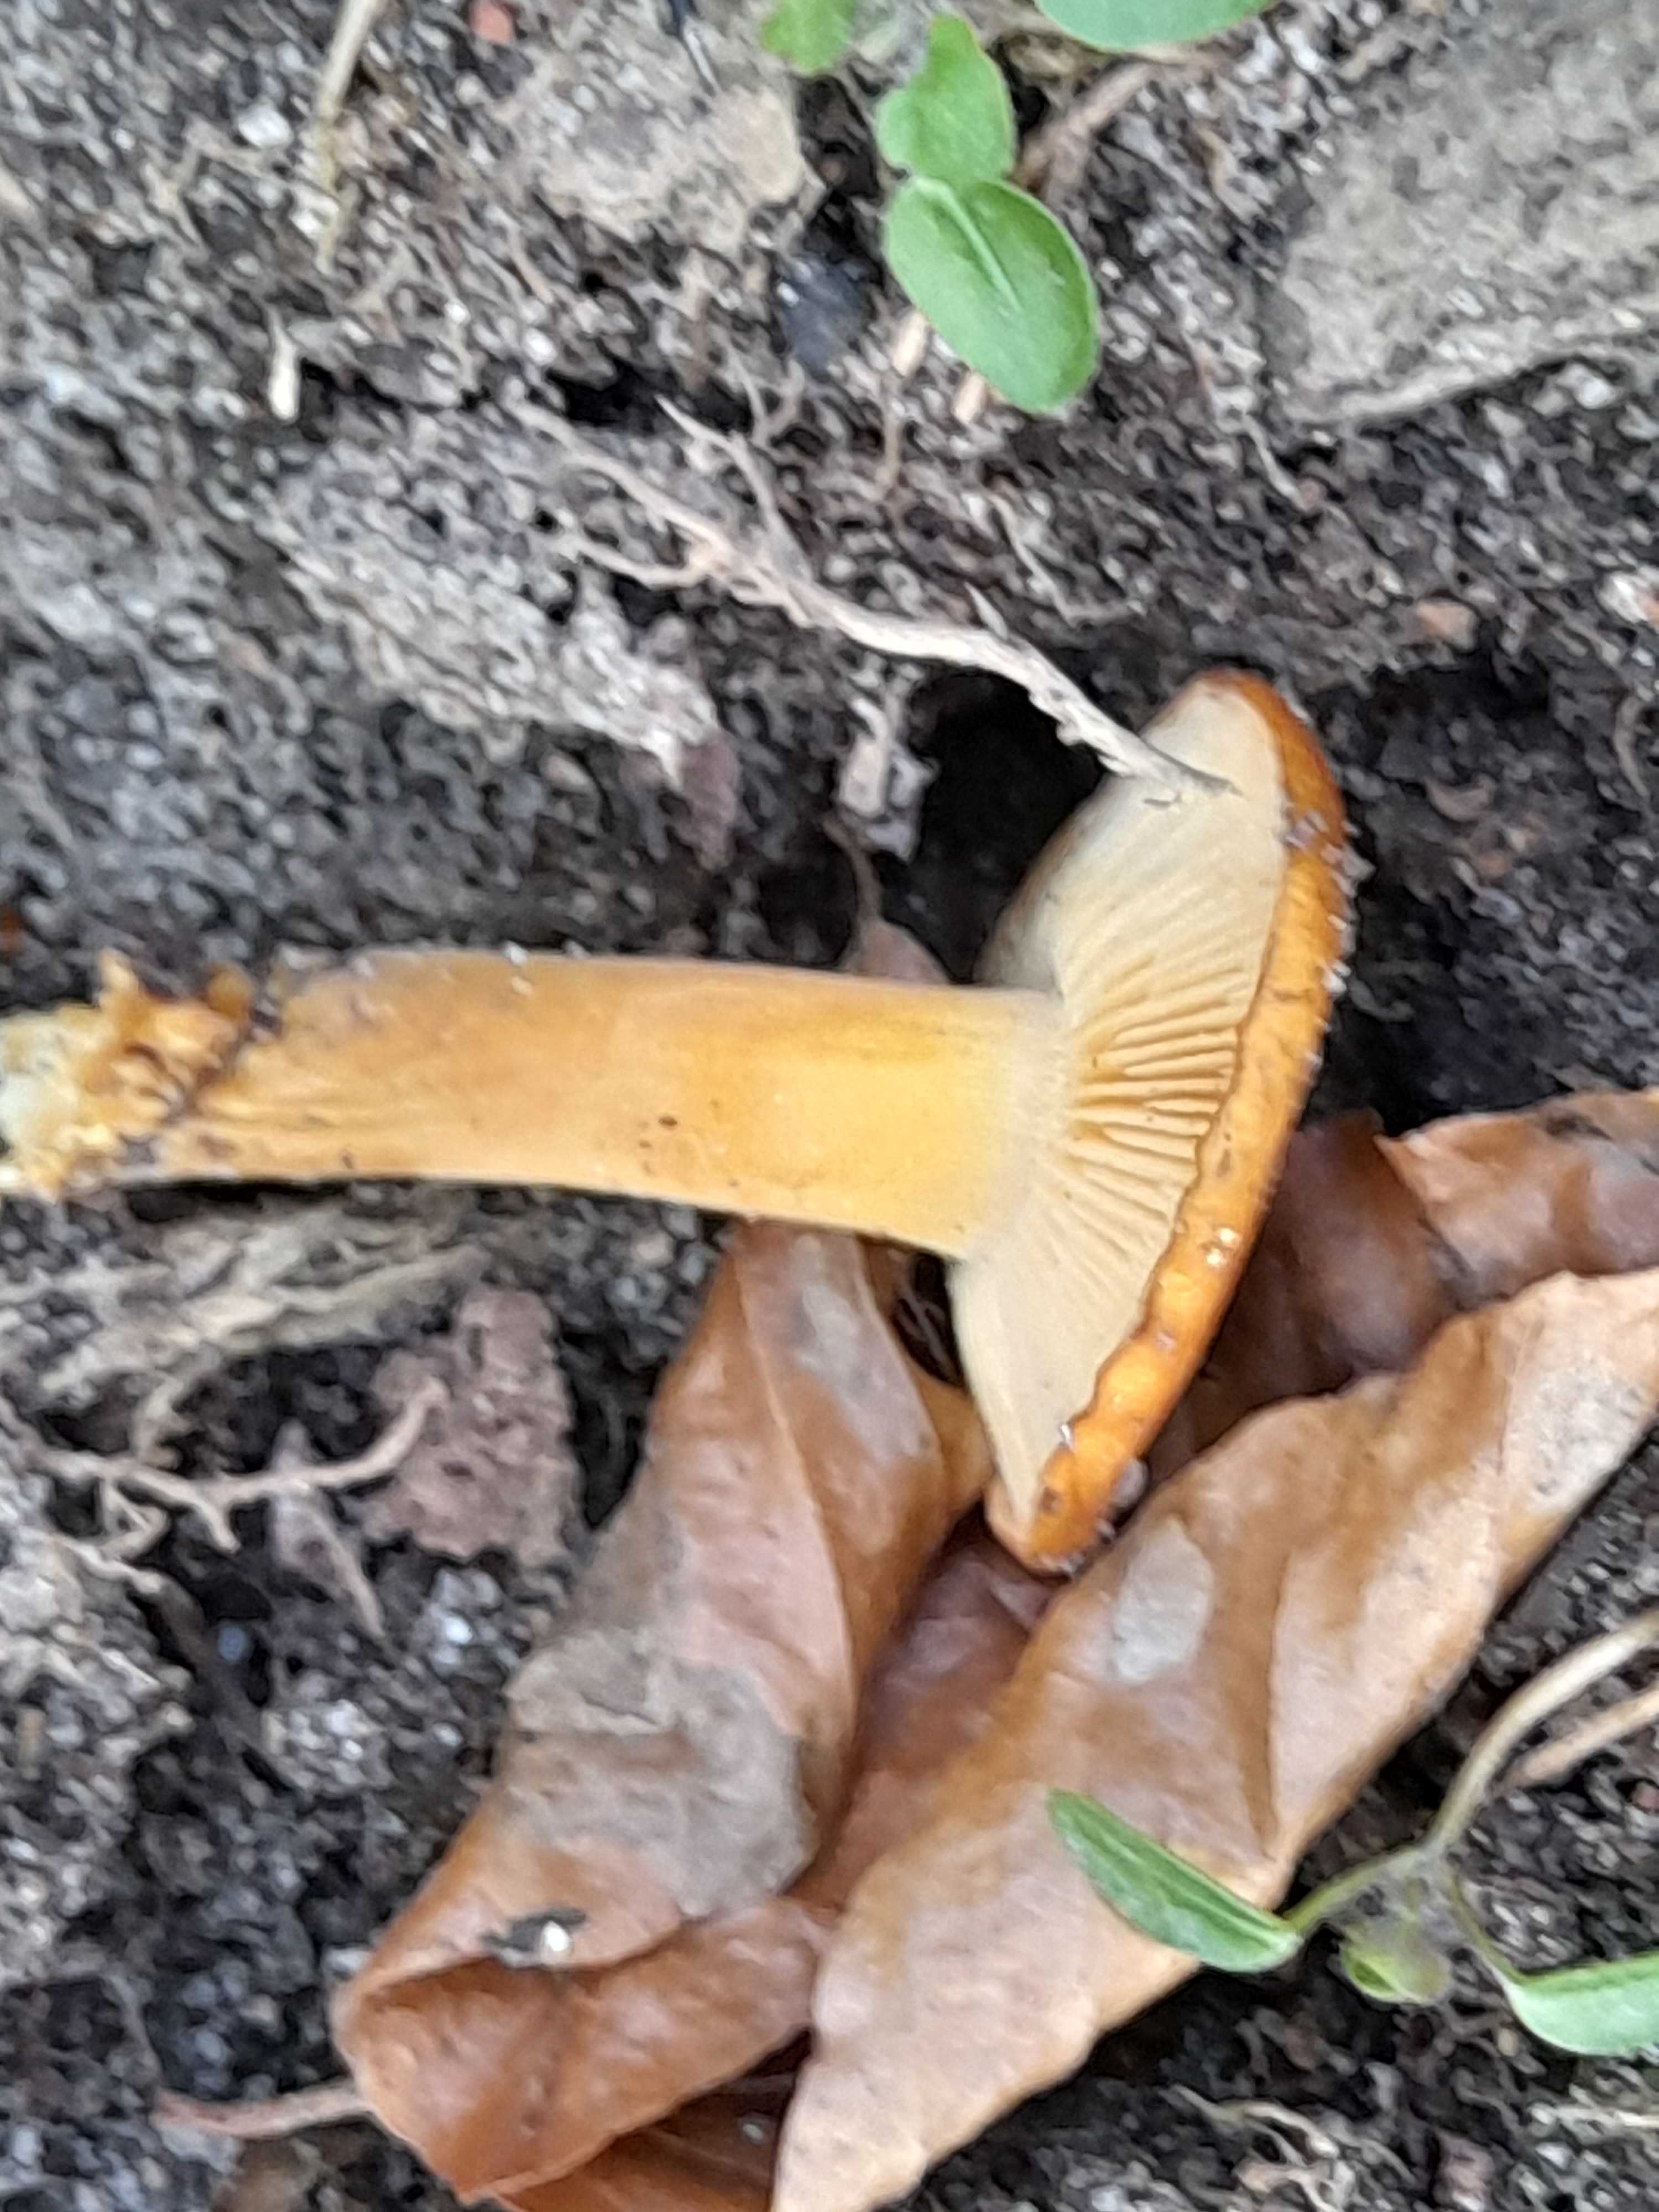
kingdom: Fungi
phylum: Basidiomycota
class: Agaricomycetes
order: Agaricales
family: Physalacriaceae
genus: Flammulina
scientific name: Flammulina velutipes
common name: gul fløjlsfod
